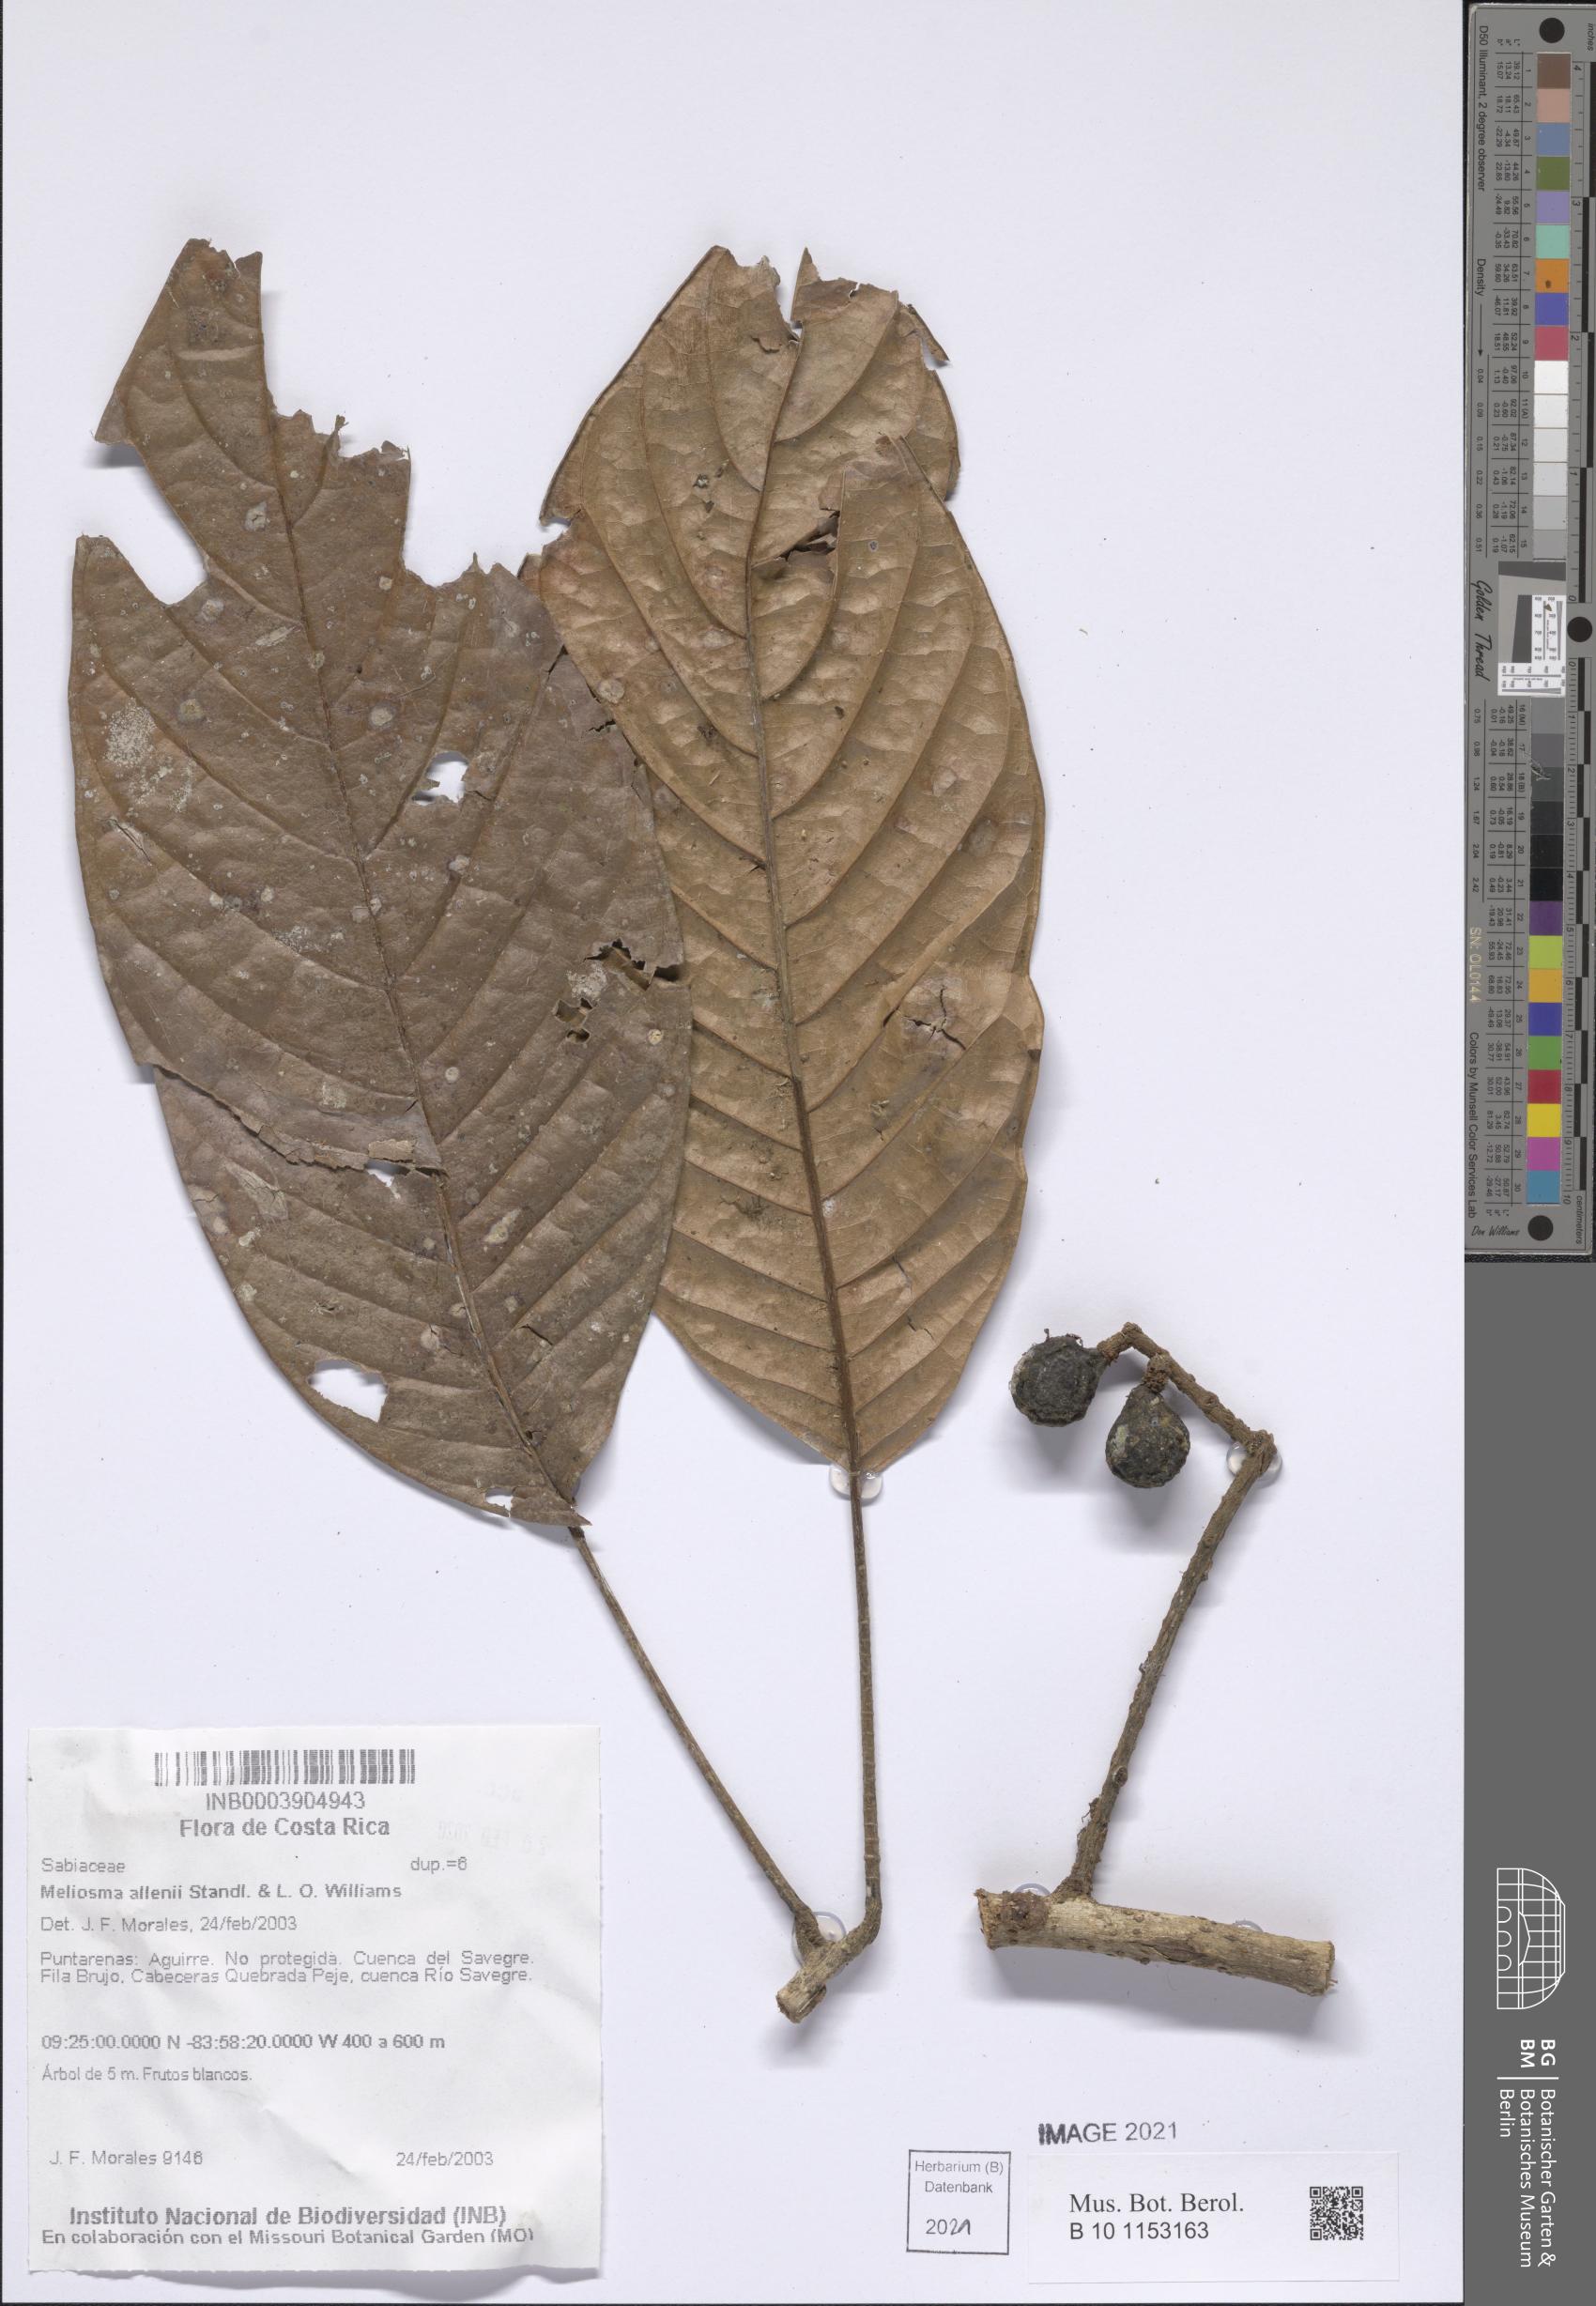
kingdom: Plantae
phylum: Tracheophyta
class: Magnoliopsida
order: Proteales
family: Sabiaceae
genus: Meliosma
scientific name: Meliosma allenii
